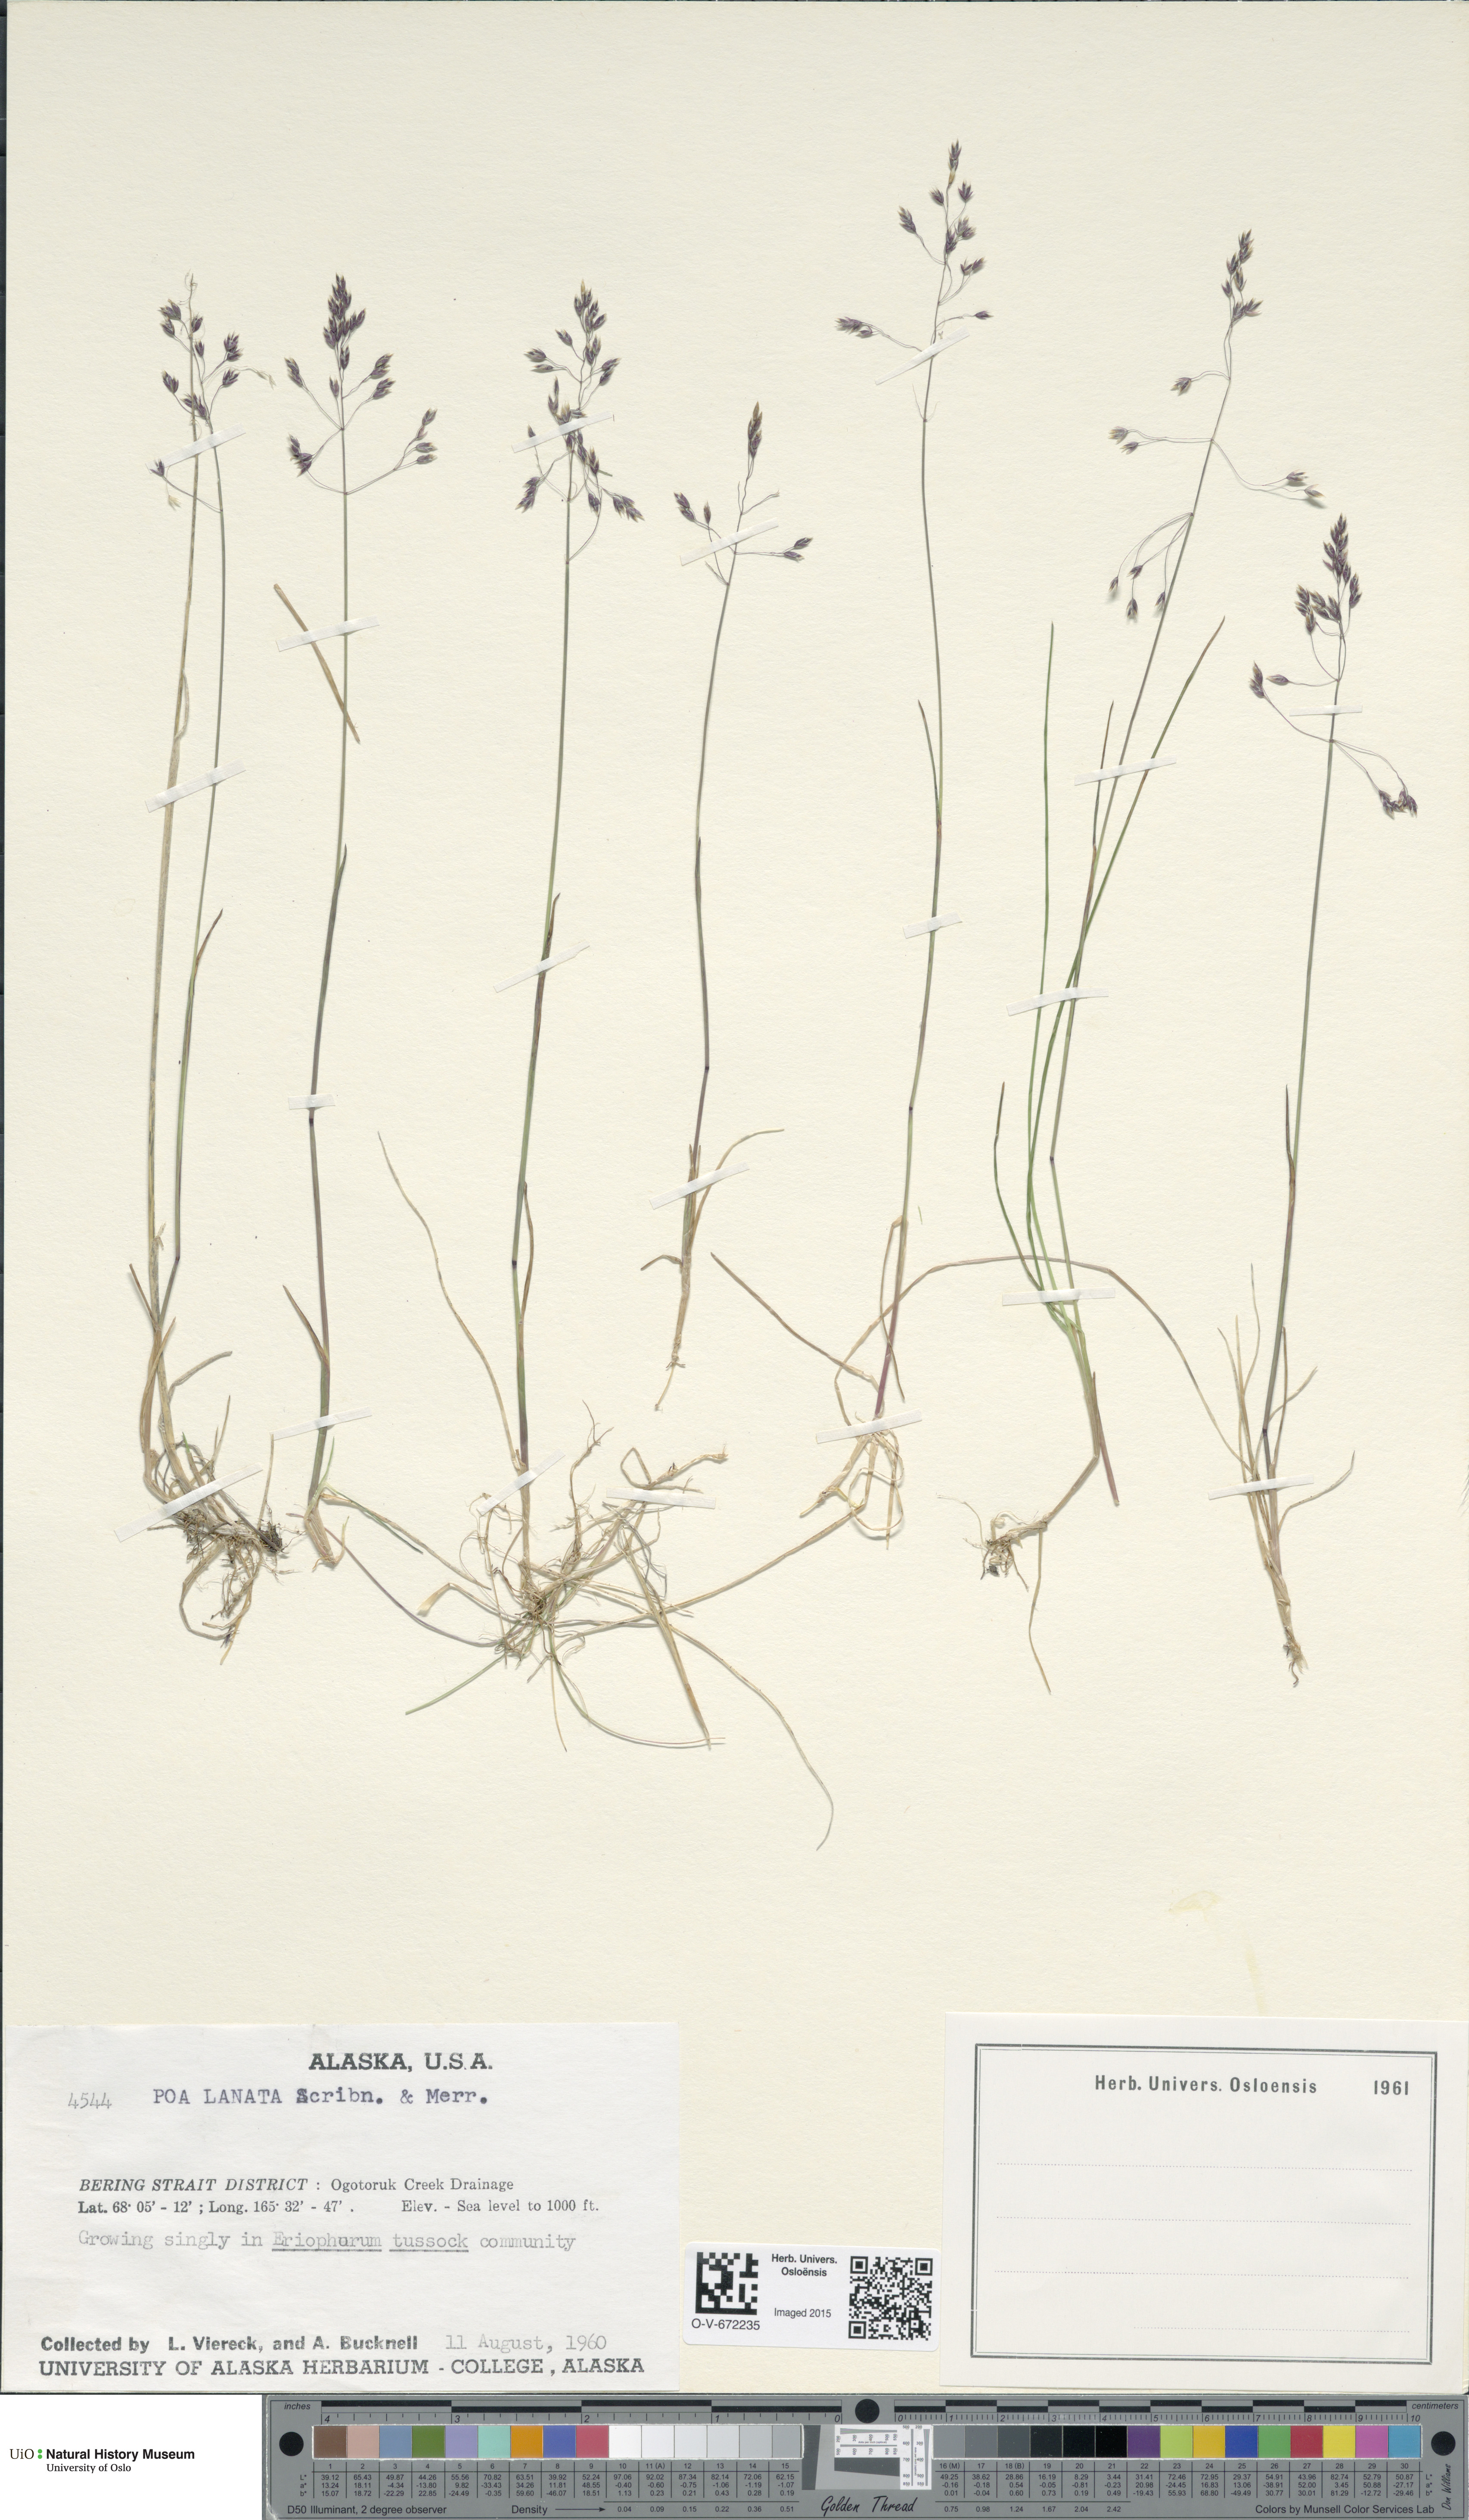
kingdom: Plantae
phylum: Tracheophyta
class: Liliopsida
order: Poales
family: Poaceae
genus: Poa
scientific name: Poa lanata
